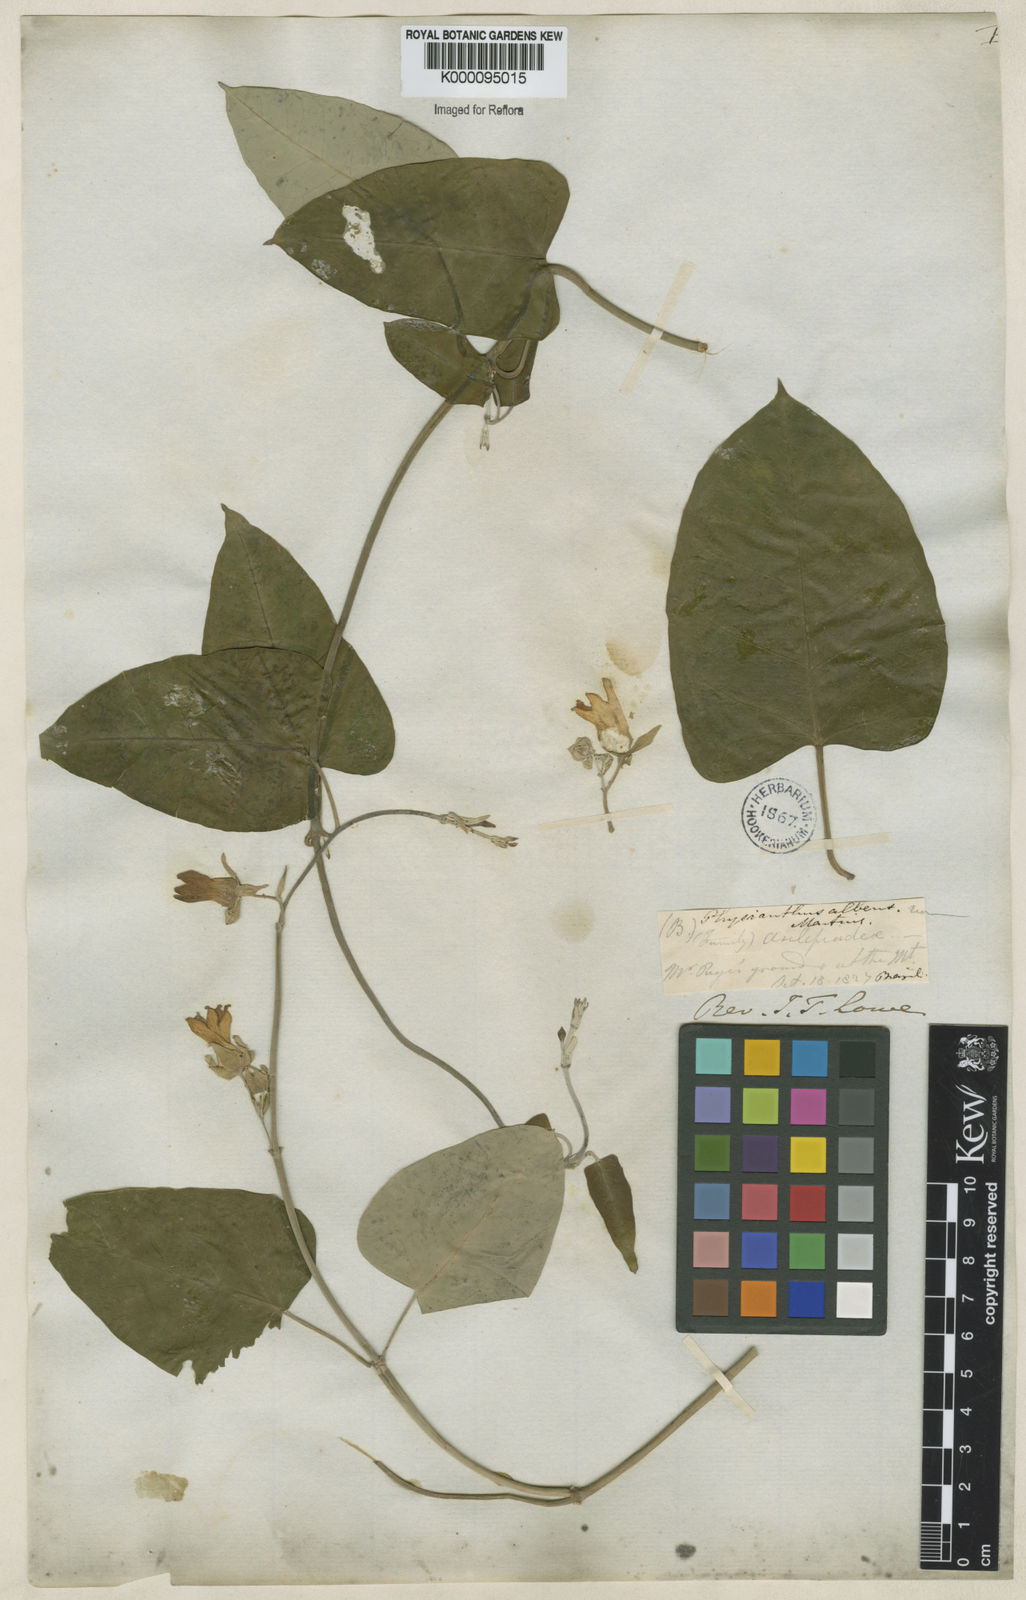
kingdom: Plantae
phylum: Tracheophyta
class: Magnoliopsida
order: Gentianales
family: Apocynaceae
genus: Araujia
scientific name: Araujia sericifera
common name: White bladderflower
